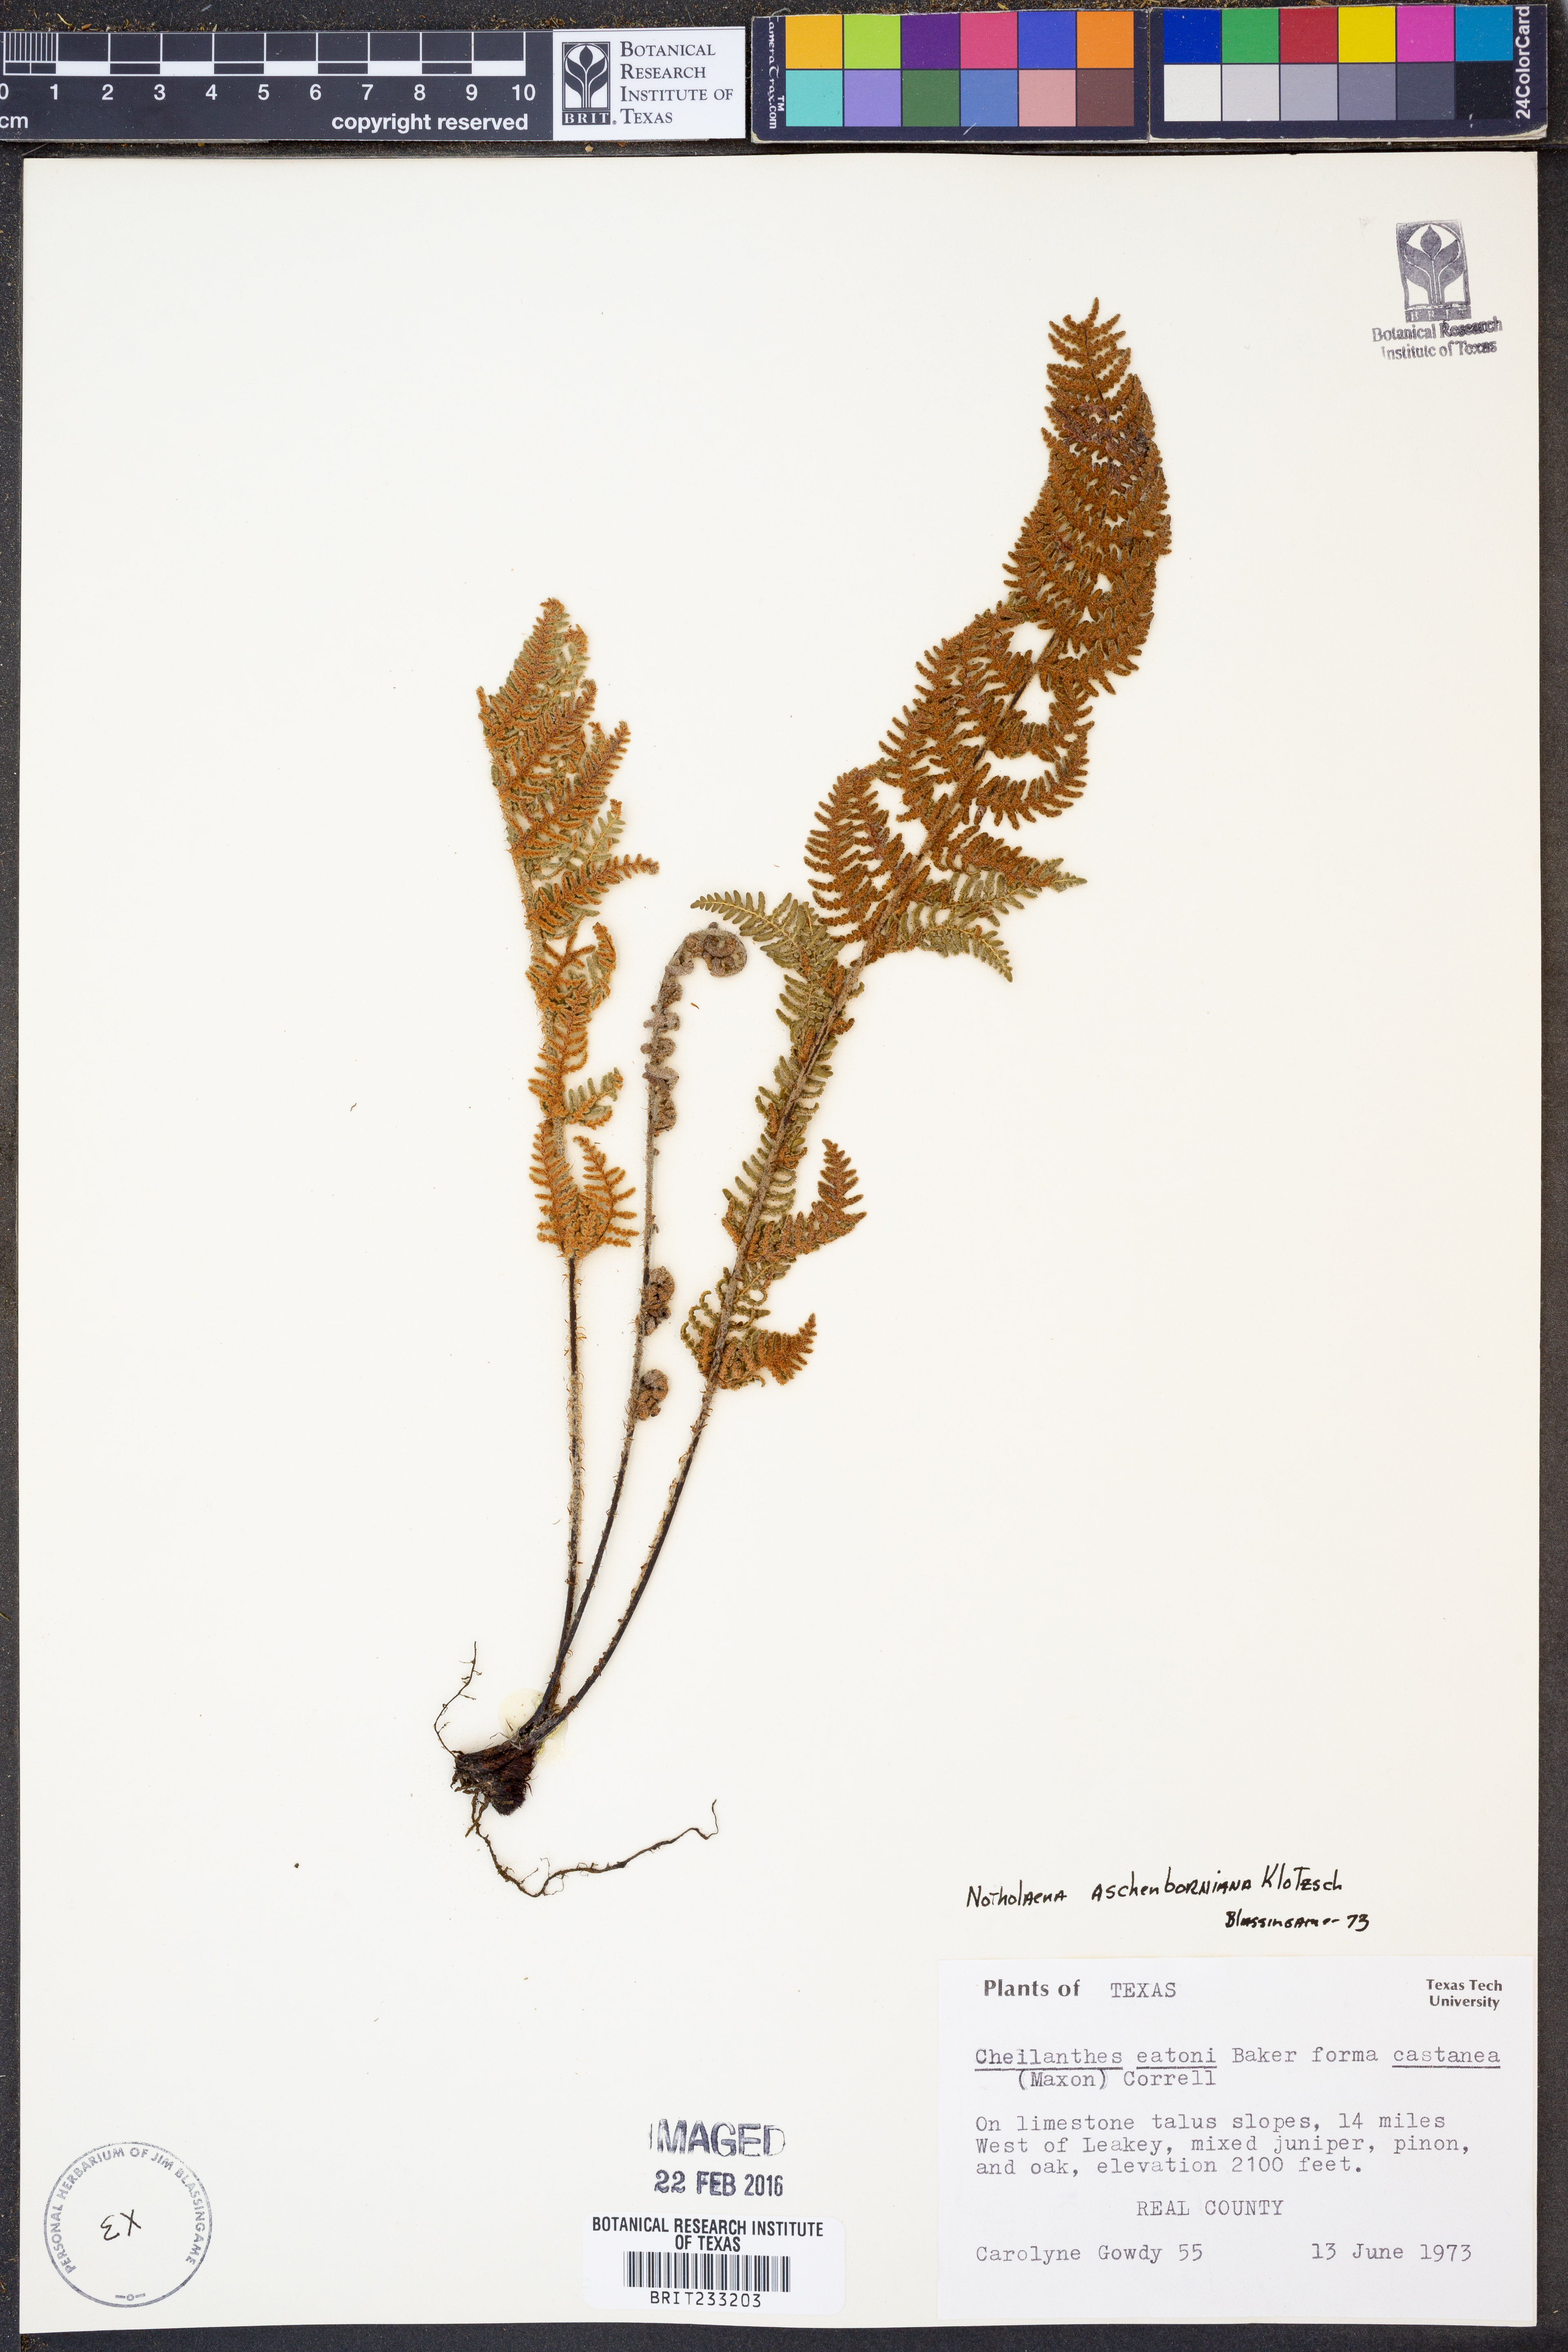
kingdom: Plantae
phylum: Tracheophyta
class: Polypodiopsida
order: Polypodiales
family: Pteridaceae
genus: Notholaena
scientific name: Notholaena aschenborniana
